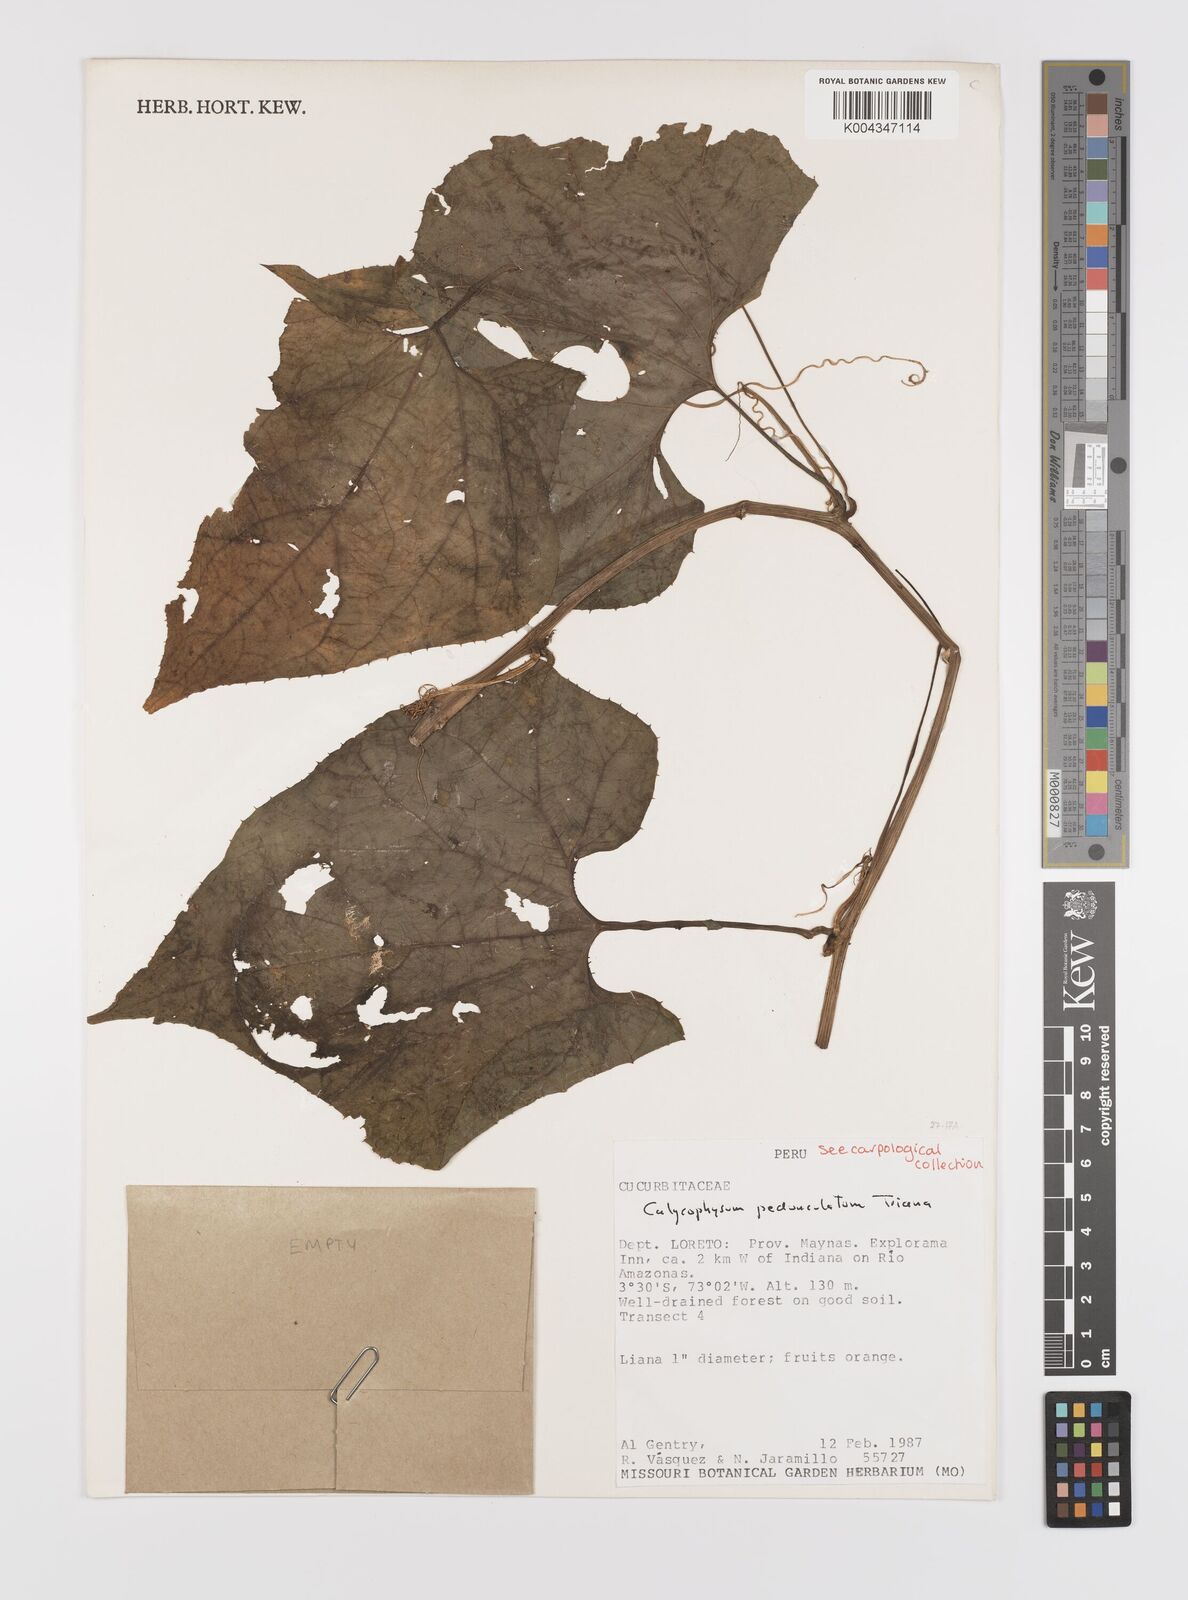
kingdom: Plantae
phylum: Tracheophyta
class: Magnoliopsida
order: Cucurbitales
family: Cucurbitaceae
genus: Calycophysum
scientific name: Calycophysum pedunculatum
